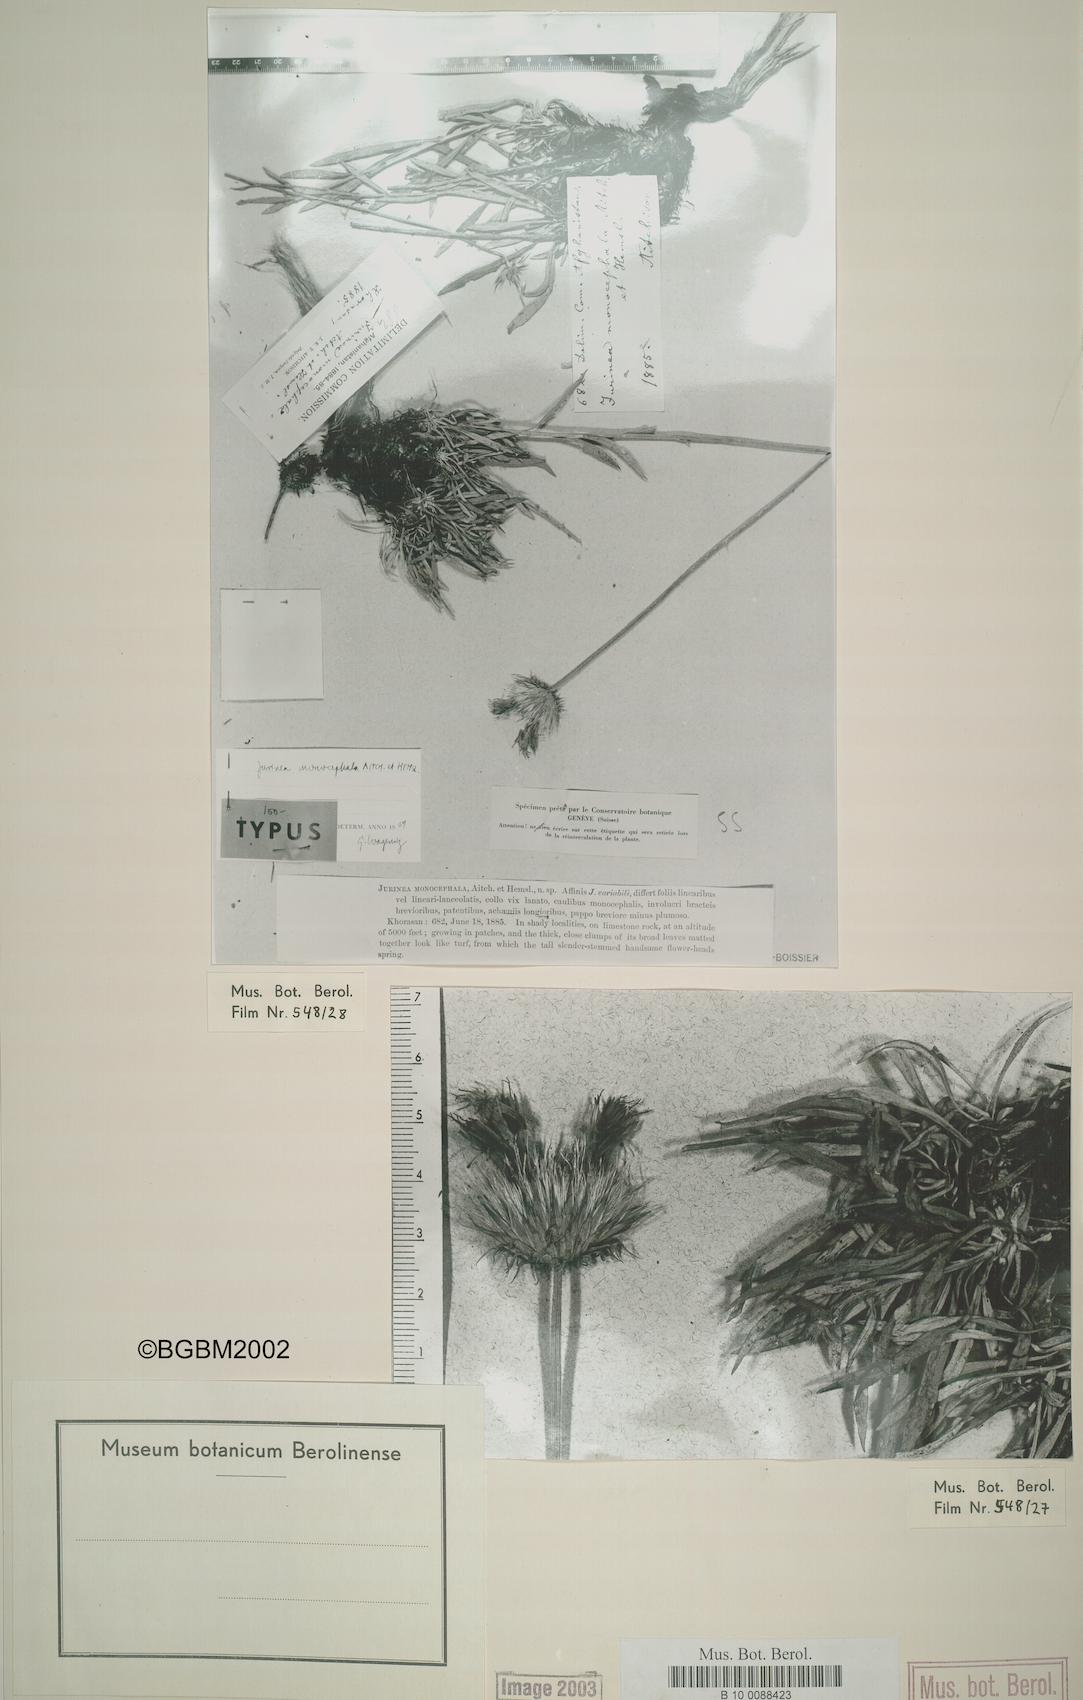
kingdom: Plantae
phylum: Tracheophyta
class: Magnoliopsida
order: Asterales
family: Asteraceae
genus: Jurinea
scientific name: Jurinea monocephala
